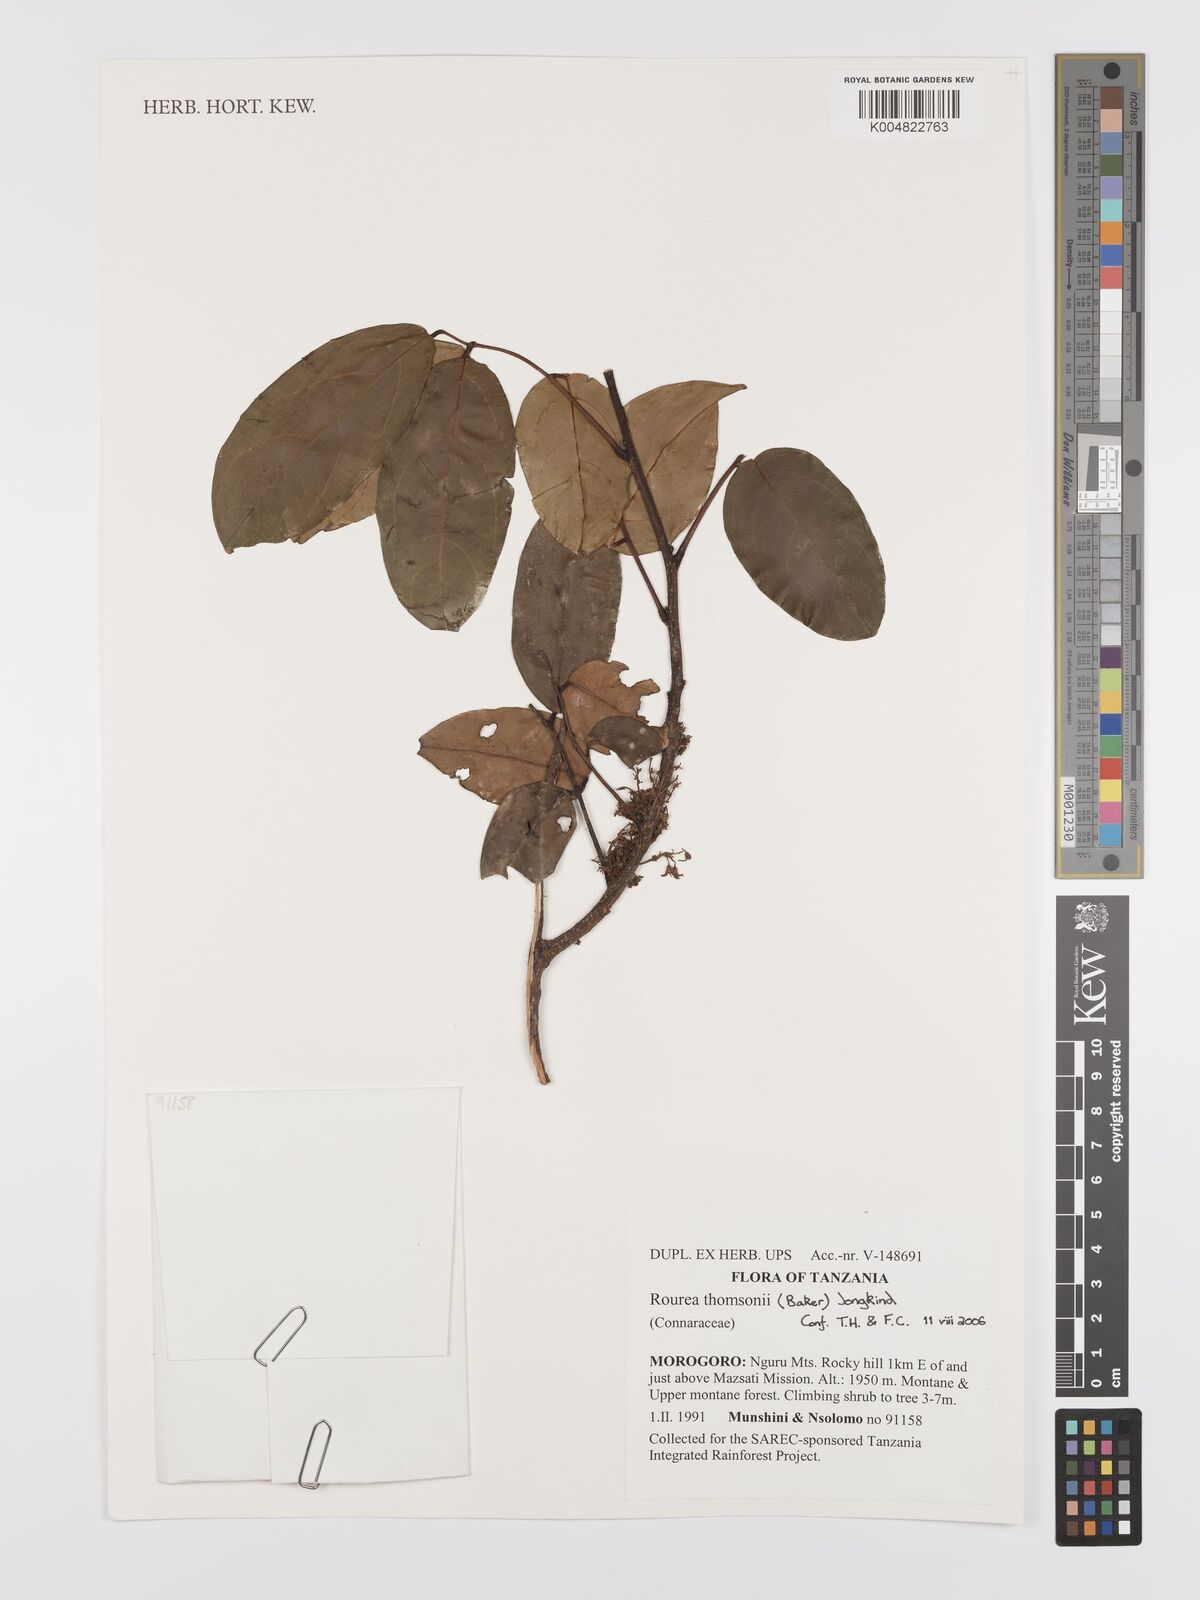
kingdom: Plantae
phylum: Tracheophyta
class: Magnoliopsida
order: Oxalidales
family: Connaraceae
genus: Rourea
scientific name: Rourea thomsonii
